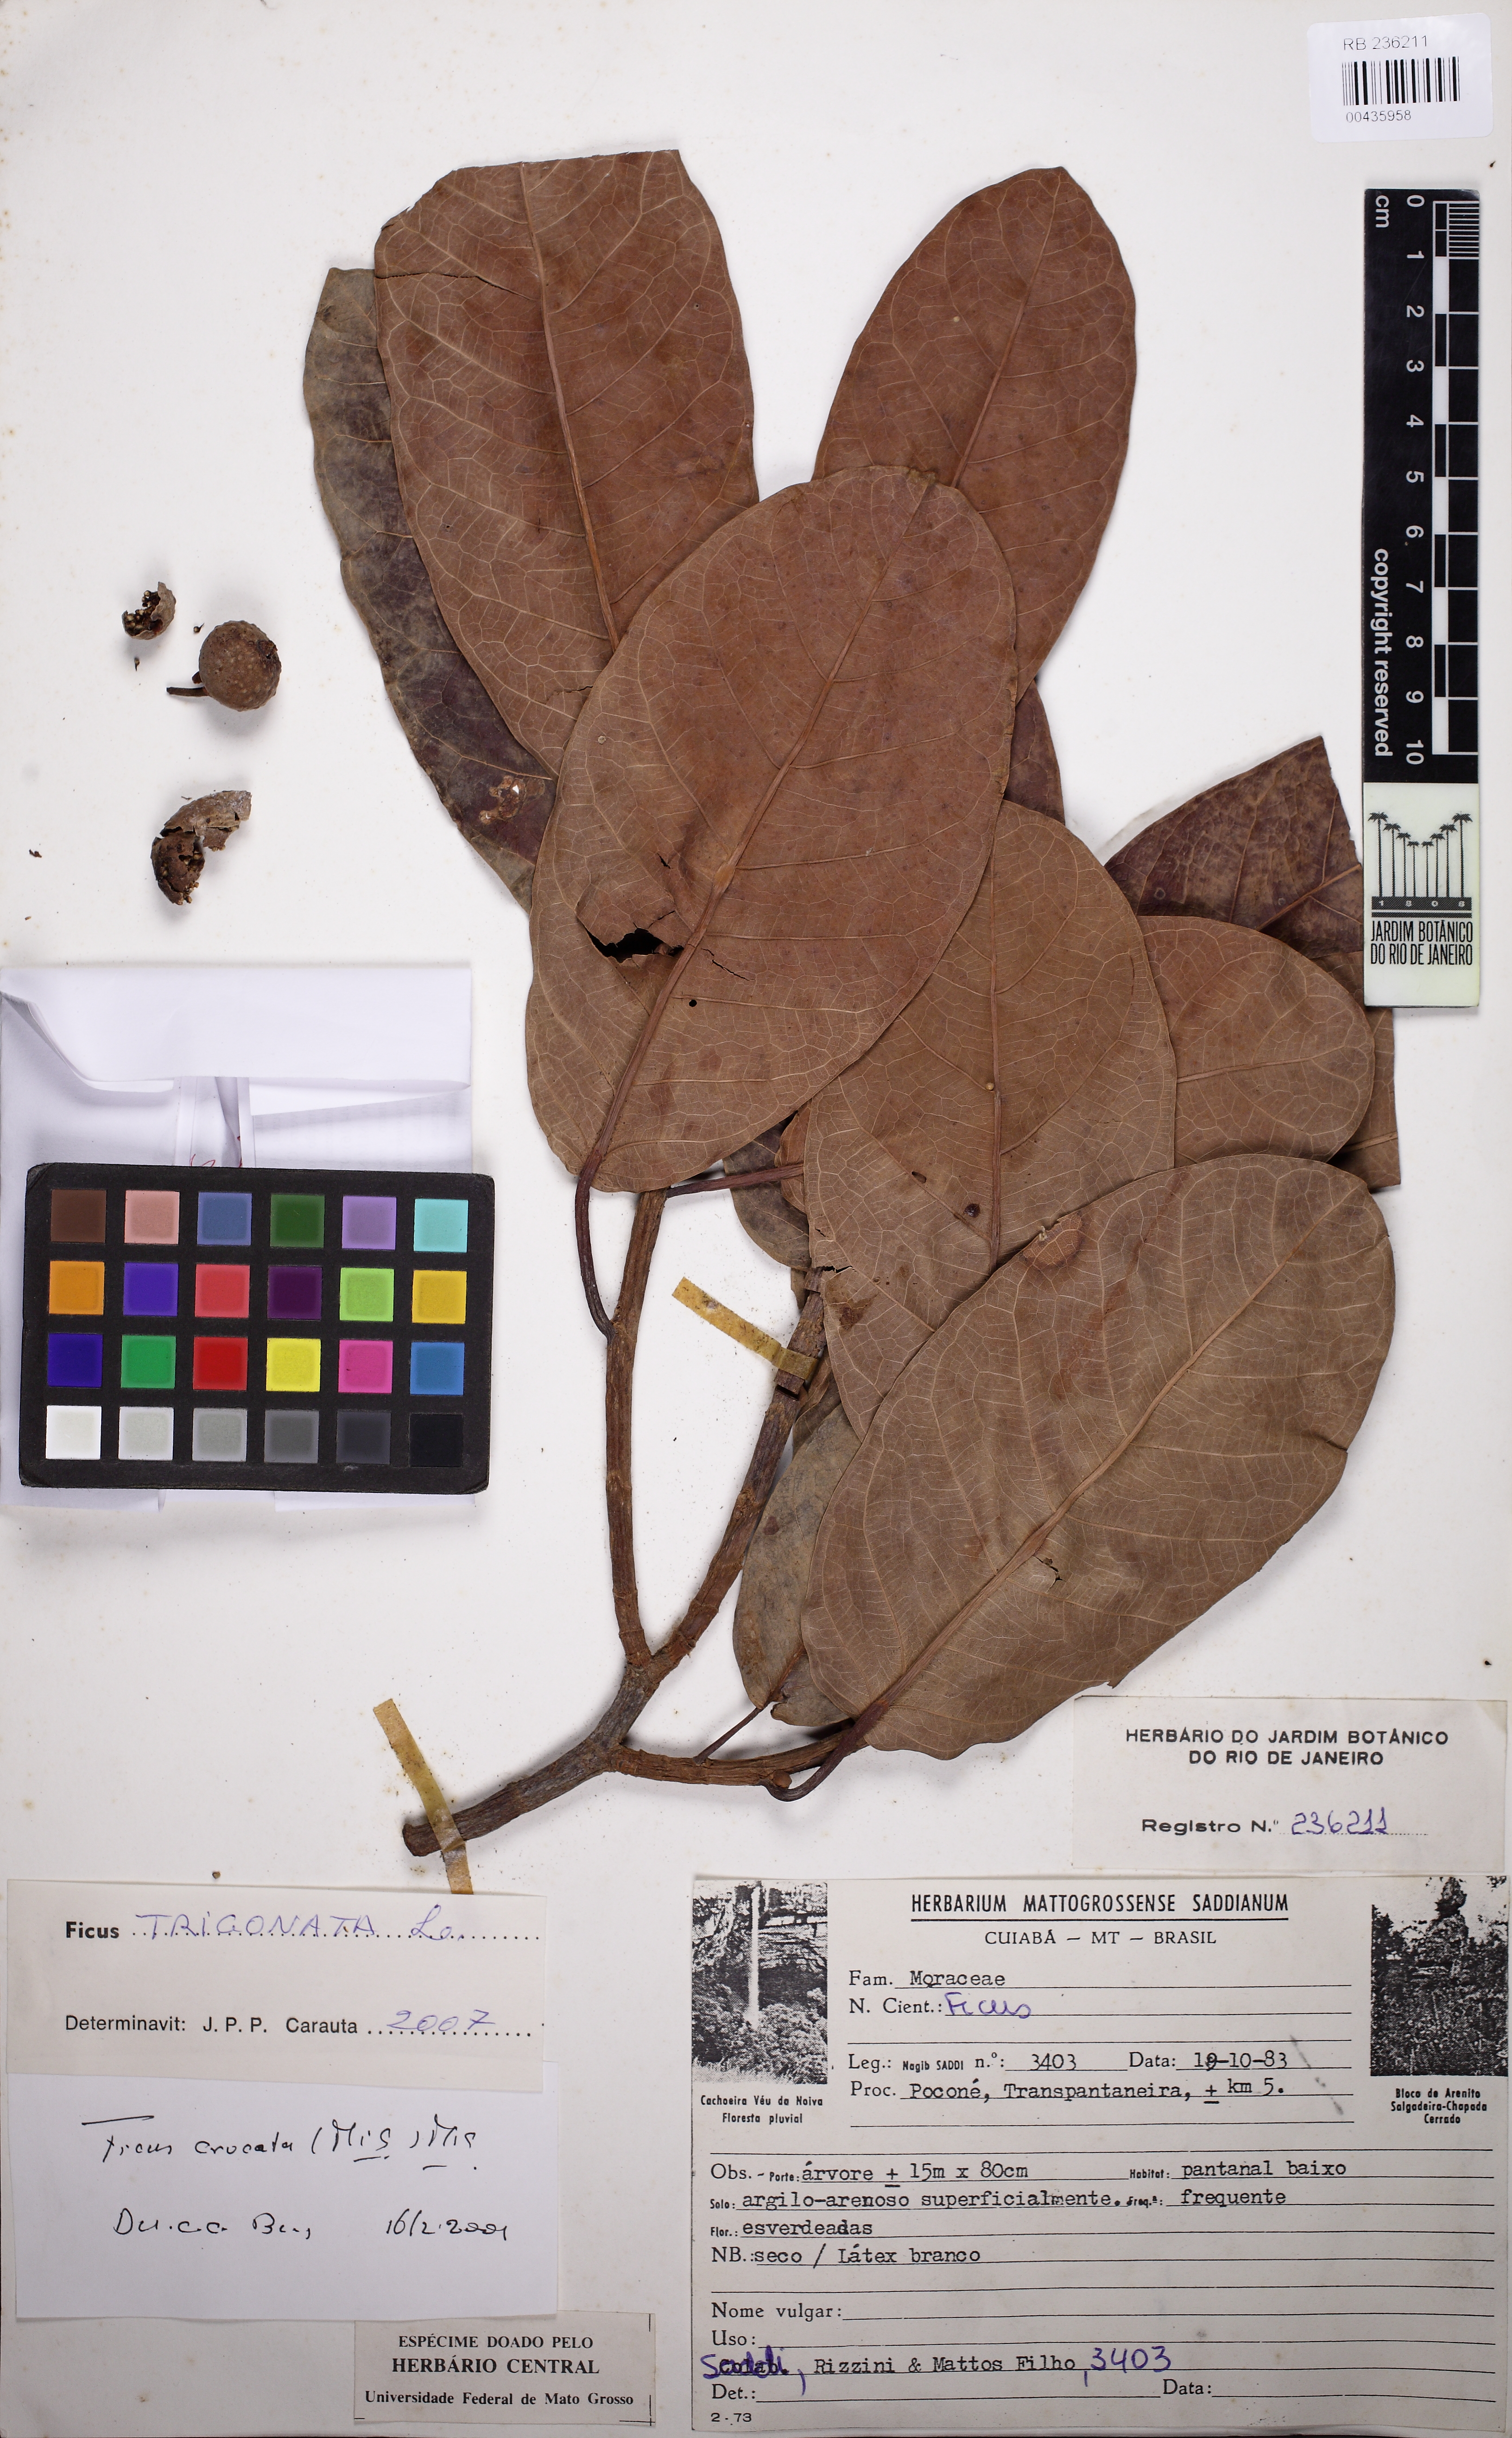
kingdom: Plantae
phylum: Tracheophyta
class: Magnoliopsida
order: Rosales
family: Moraceae
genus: Ficus
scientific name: Ficus crocata
